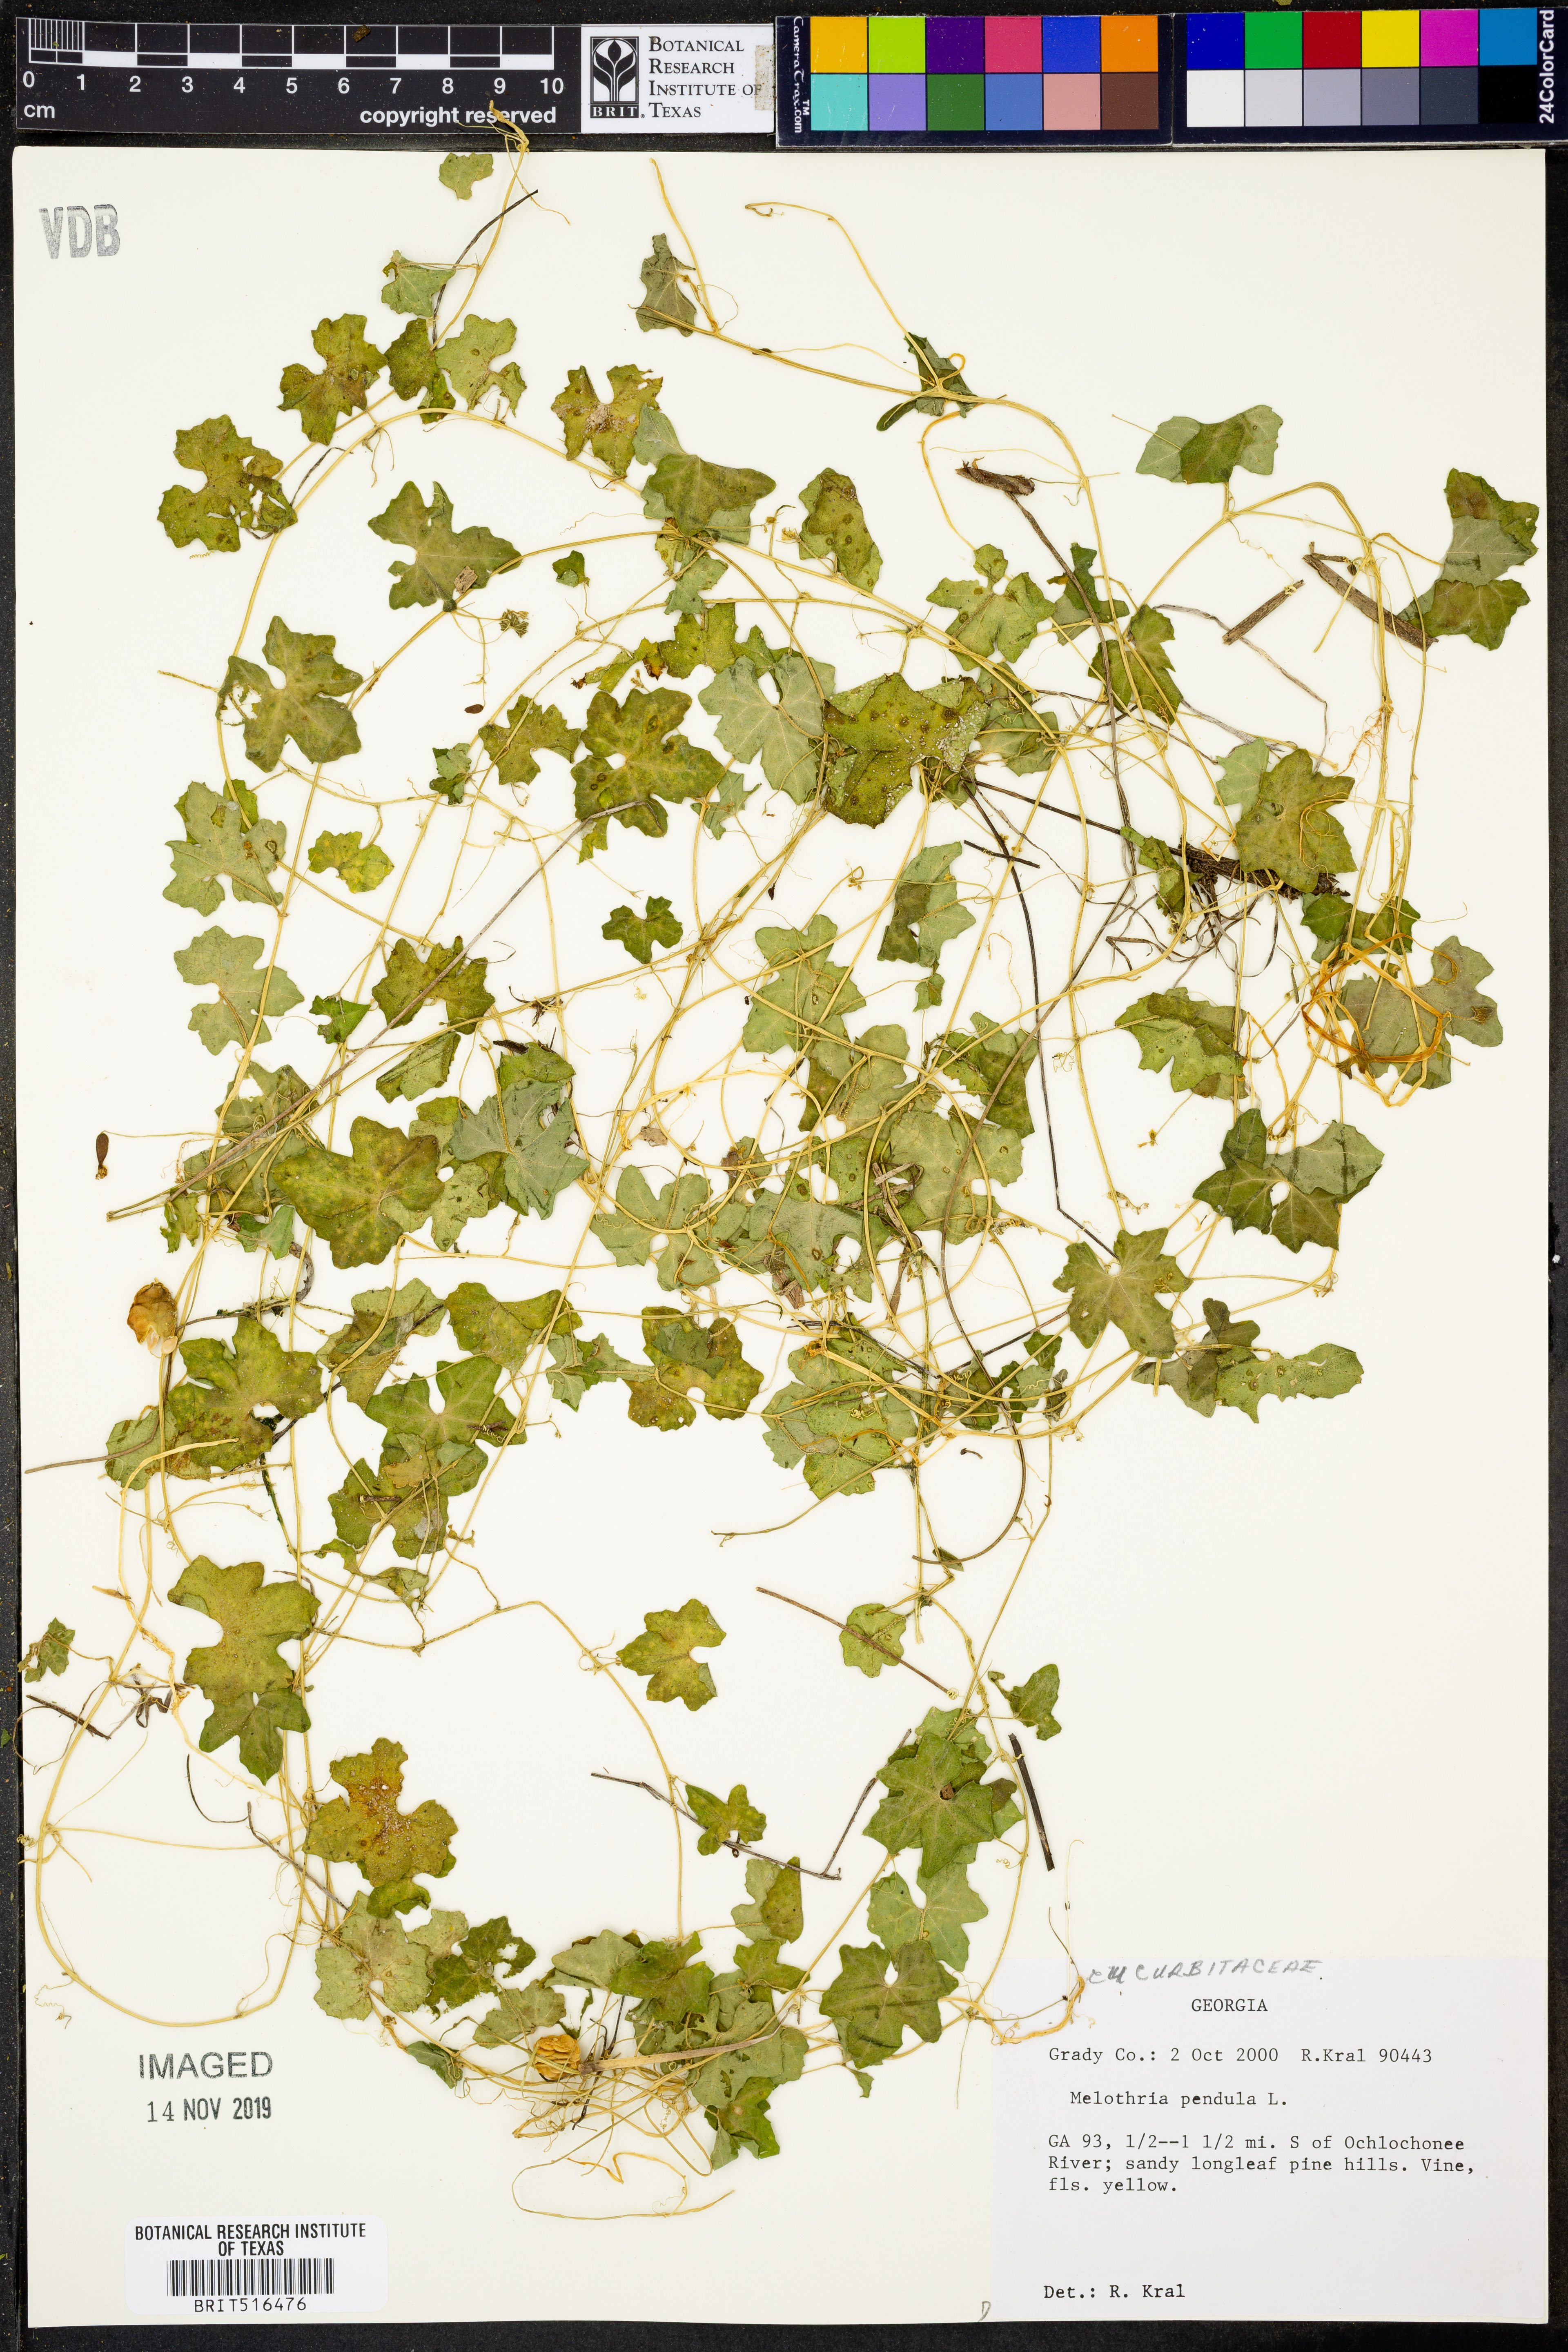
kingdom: Plantae
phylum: Tracheophyta
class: Magnoliopsida
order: Cucurbitales
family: Cucurbitaceae
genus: Melothria
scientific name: Melothria pendula
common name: Creeping-cucumber
